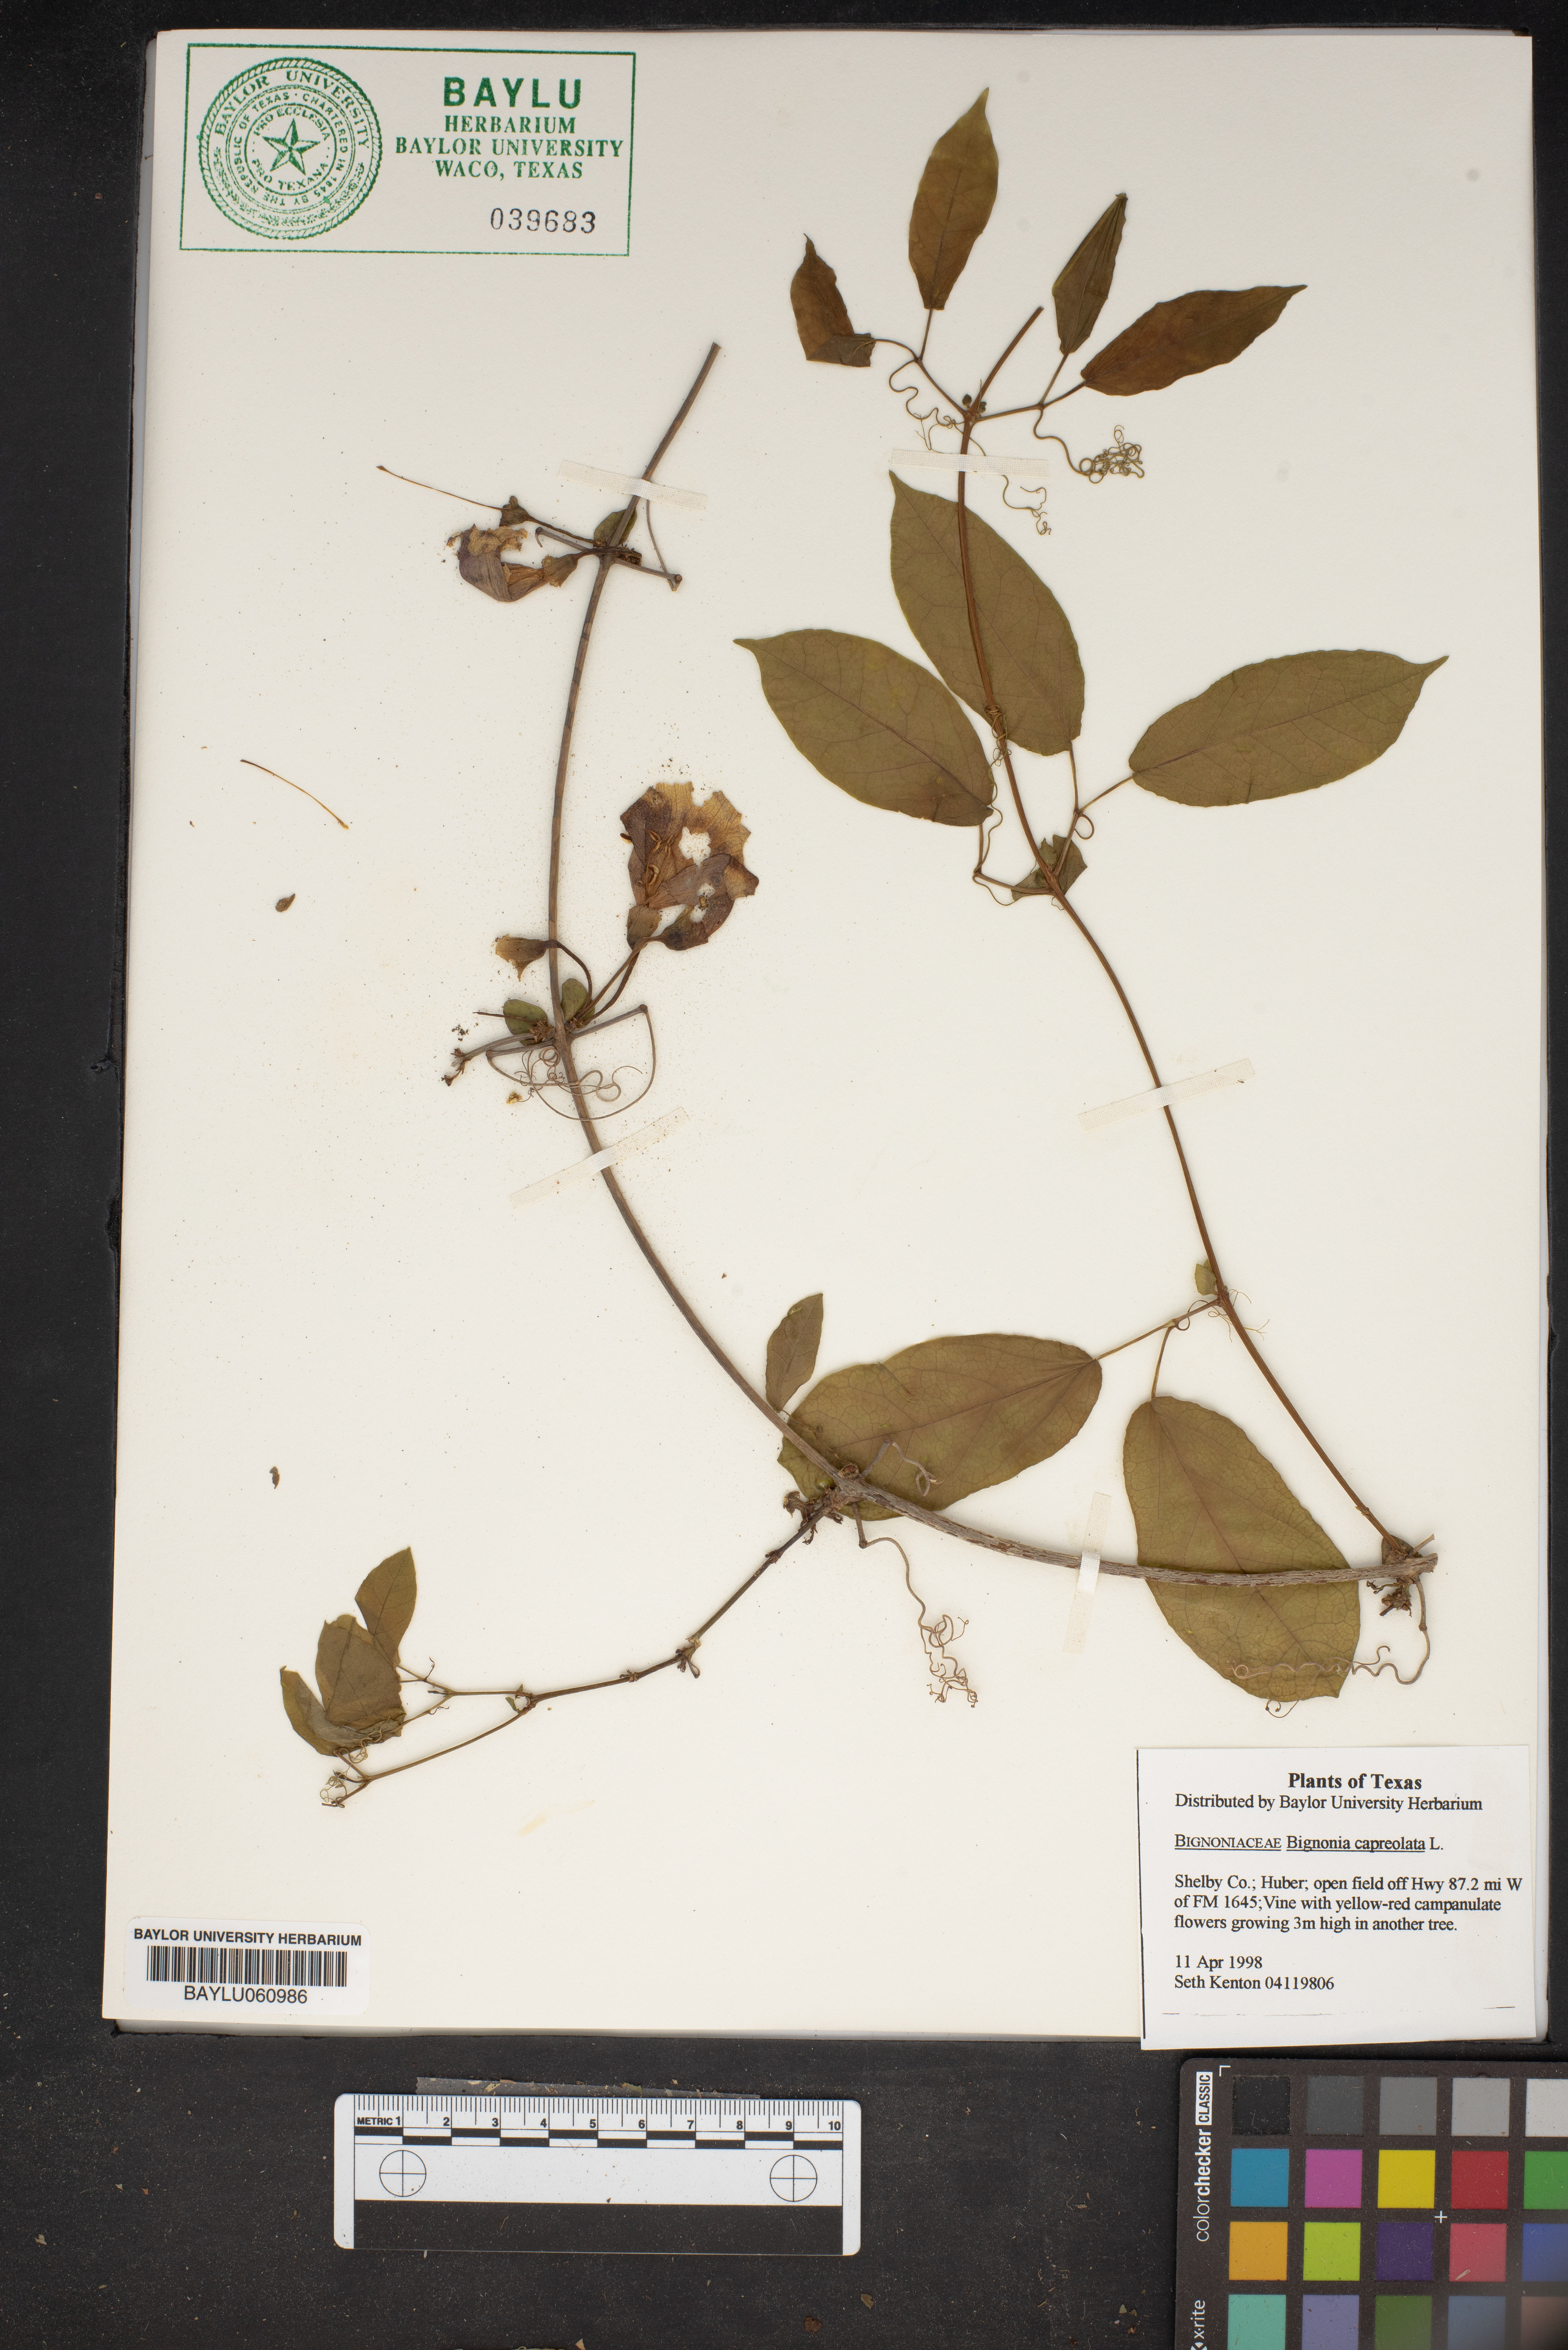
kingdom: Plantae
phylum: Tracheophyta
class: Magnoliopsida
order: Lamiales
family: Bignoniaceae
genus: Bignonia
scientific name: Bignonia capreolata
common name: Crossvine
